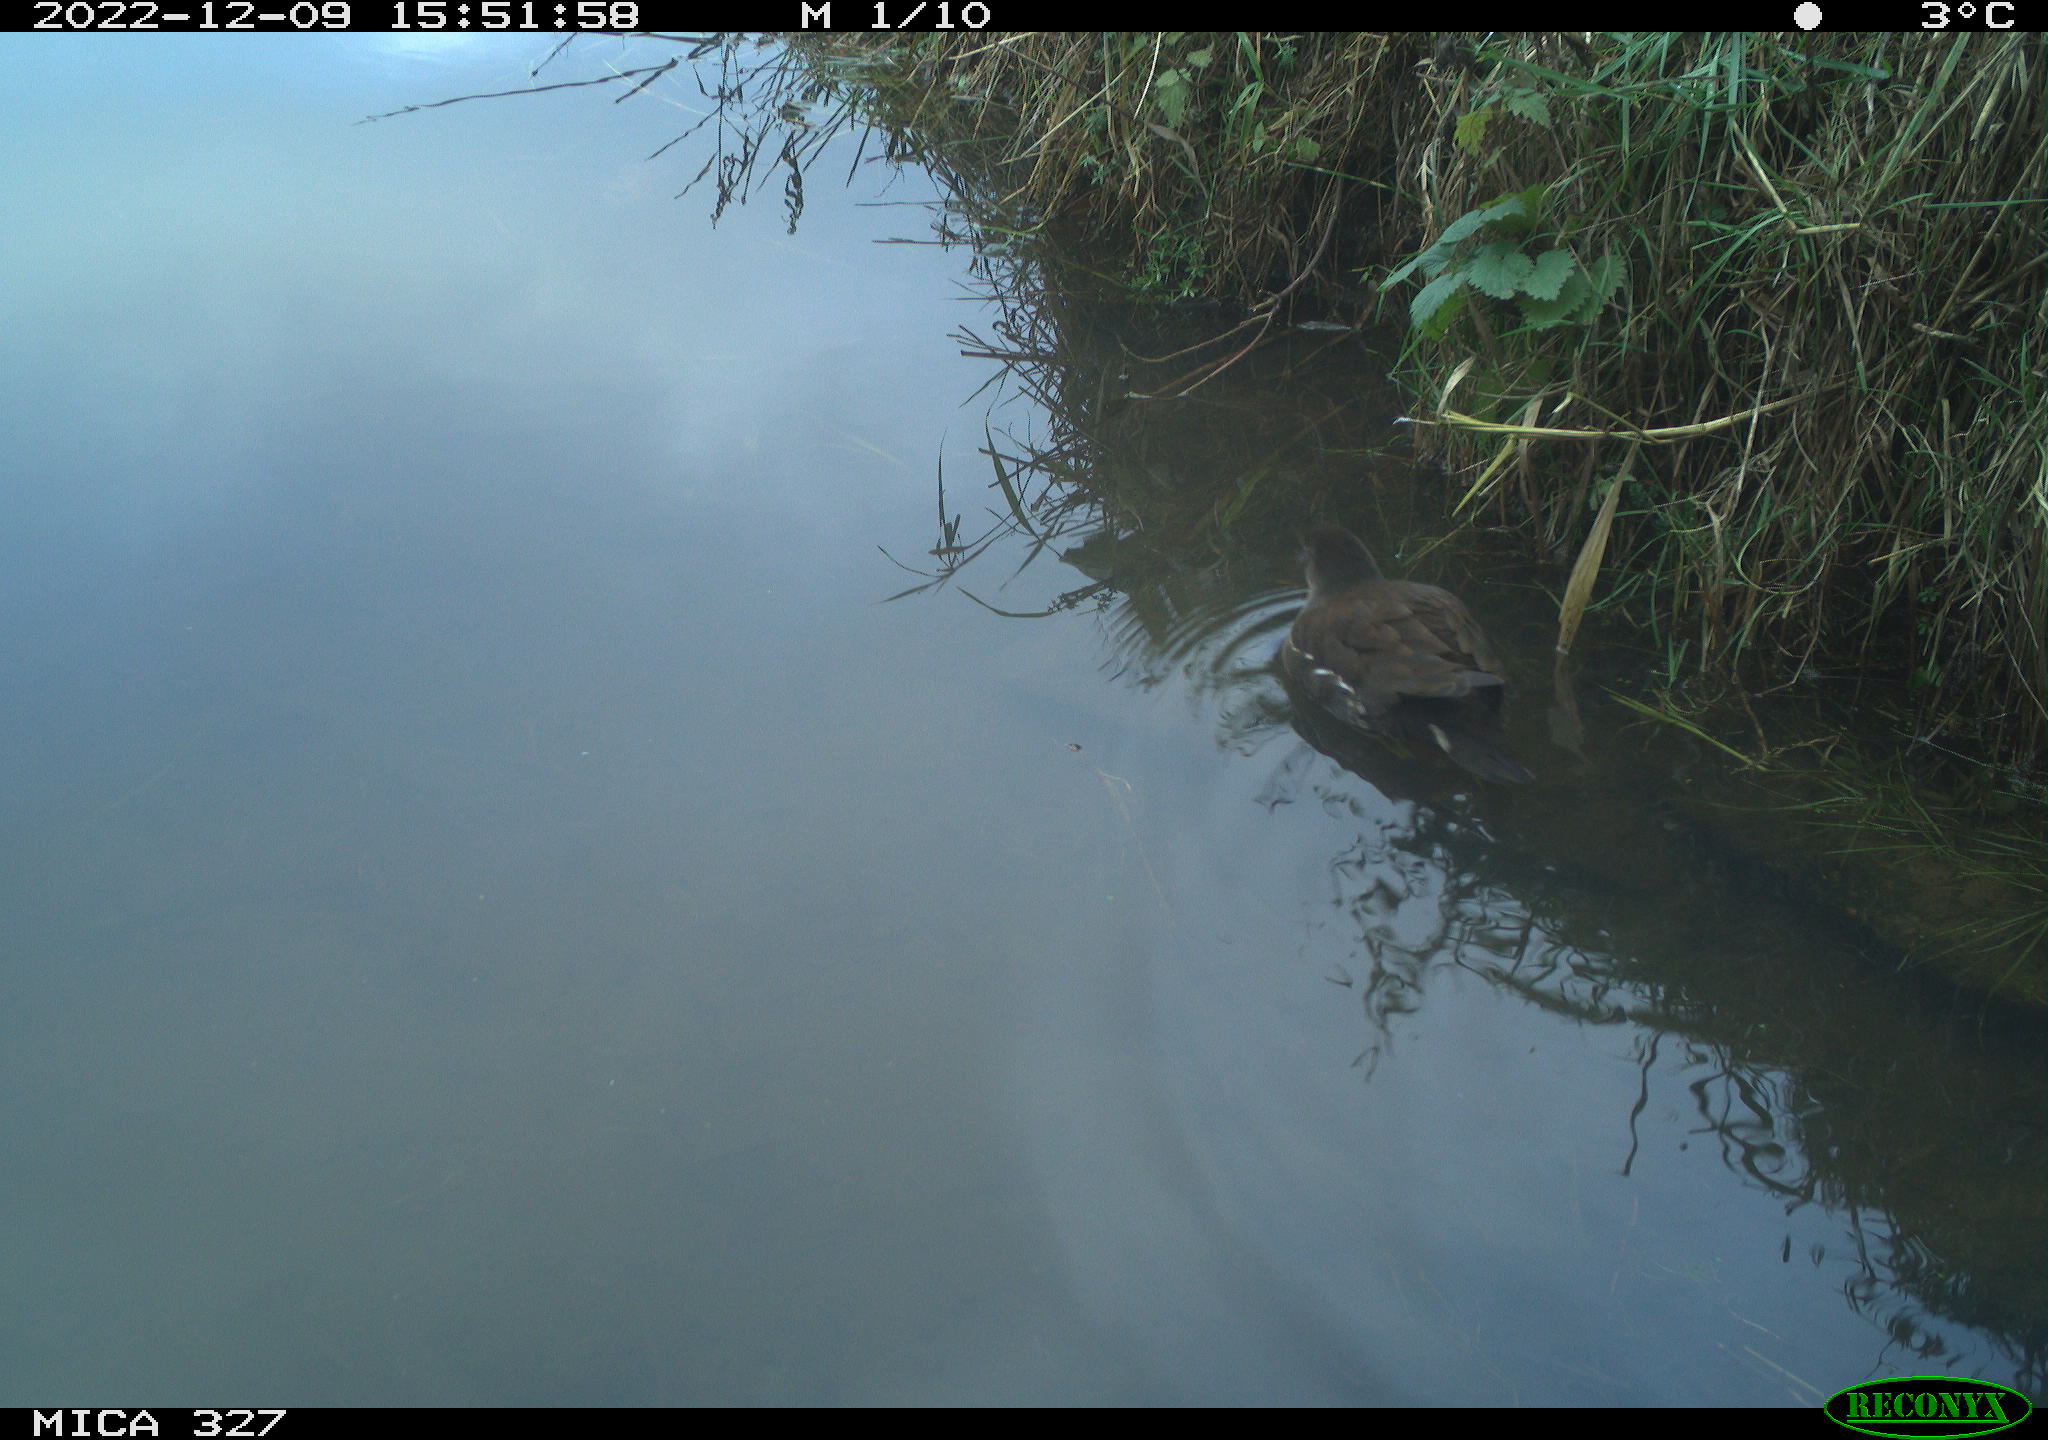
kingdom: Animalia
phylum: Chordata
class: Aves
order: Gruiformes
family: Rallidae
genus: Gallinula
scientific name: Gallinula chloropus
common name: Common moorhen
